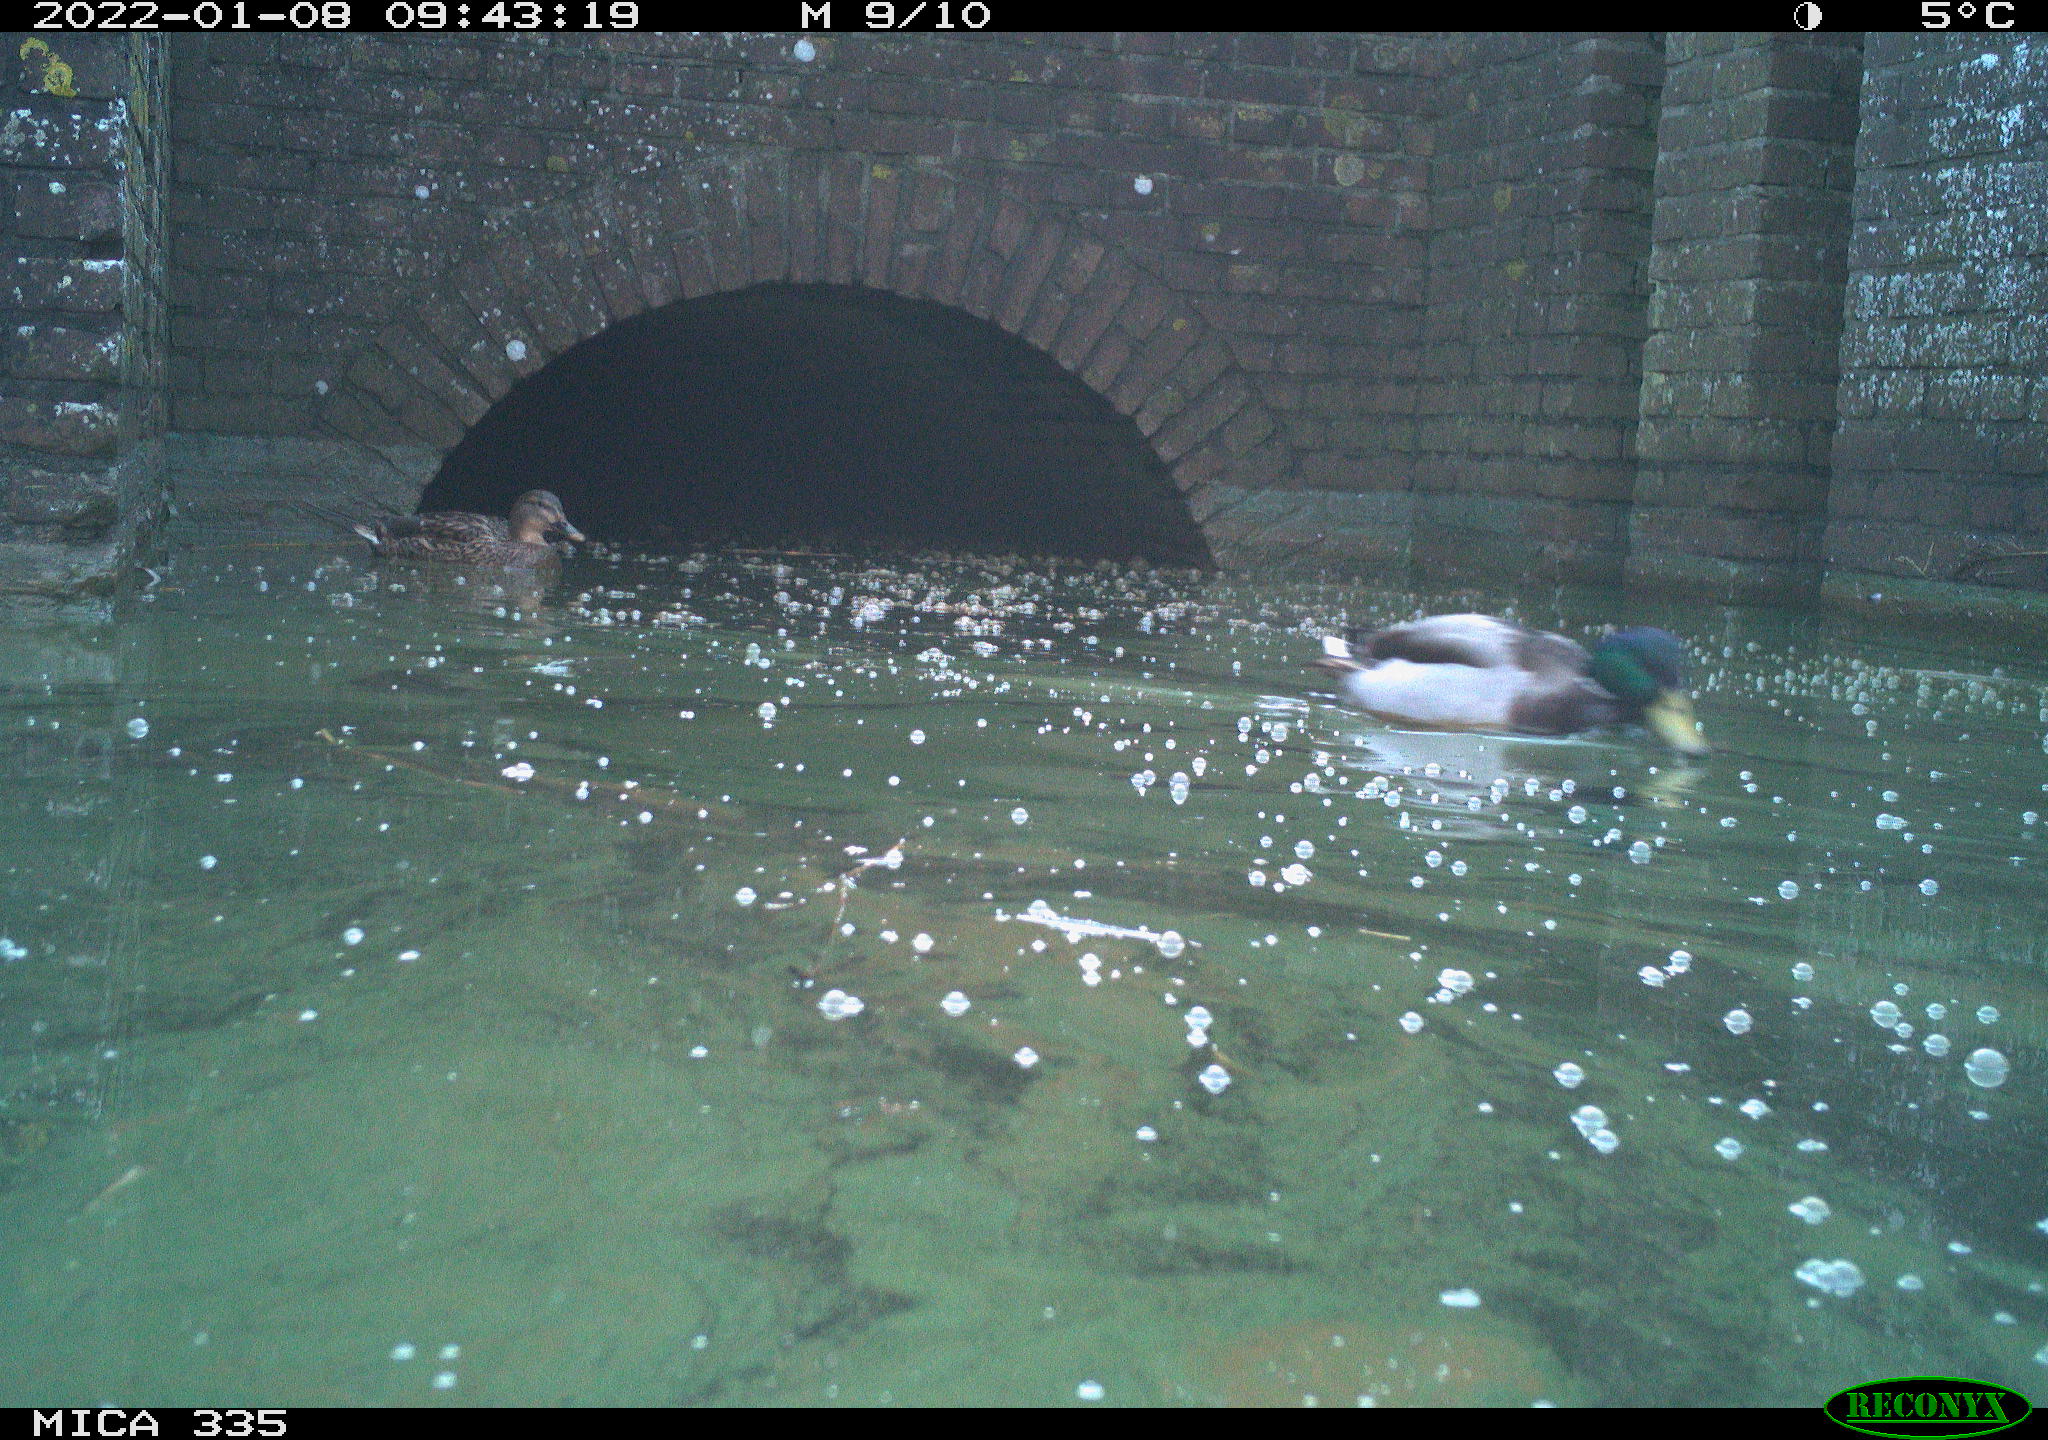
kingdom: Animalia
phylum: Chordata
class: Aves
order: Anseriformes
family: Anatidae
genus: Anas
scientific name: Anas platyrhynchos
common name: Mallard
